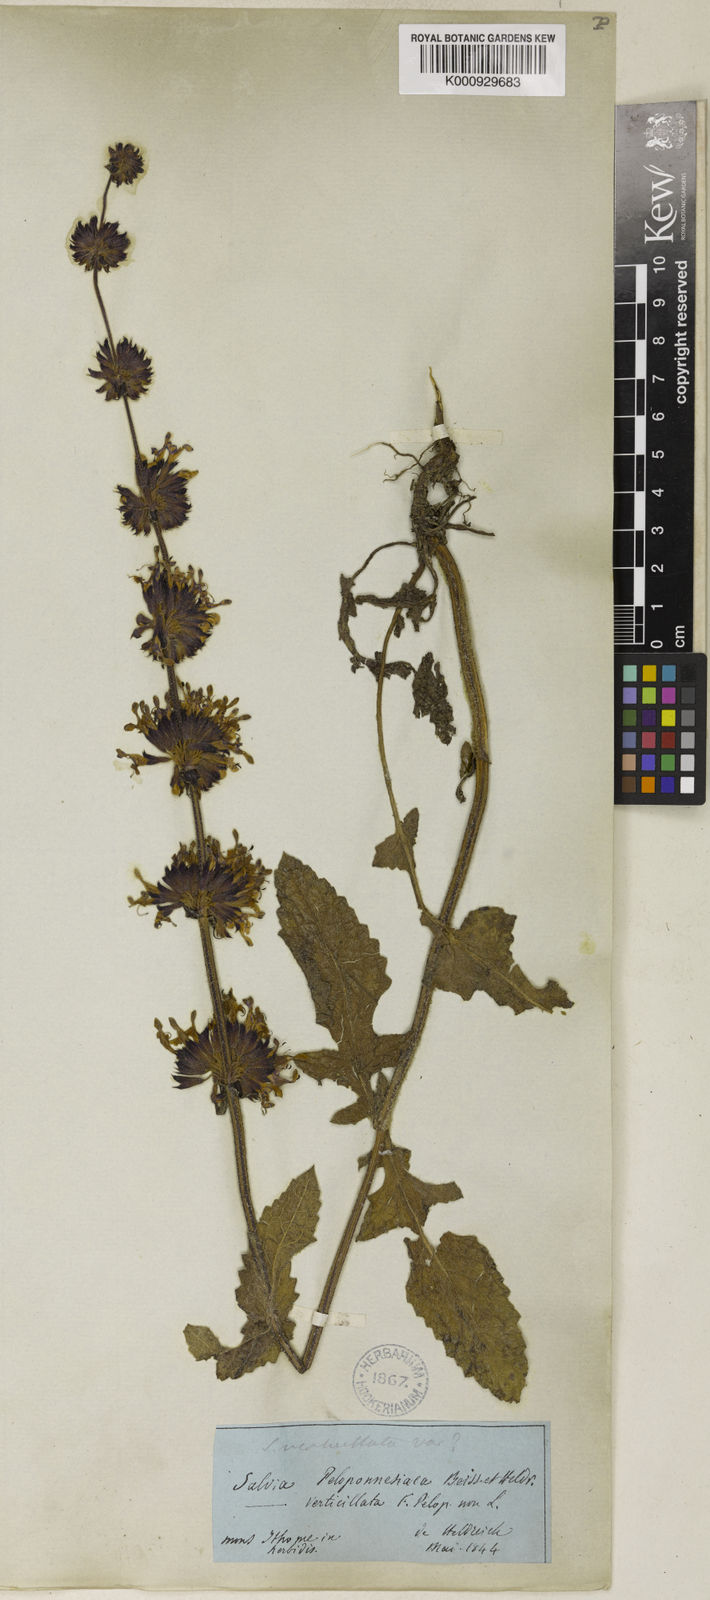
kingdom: Plantae
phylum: Tracheophyta
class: Magnoliopsida
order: Lamiales
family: Lamiaceae
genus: Salvia
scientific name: Salvia verticillata
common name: Whorled clary
